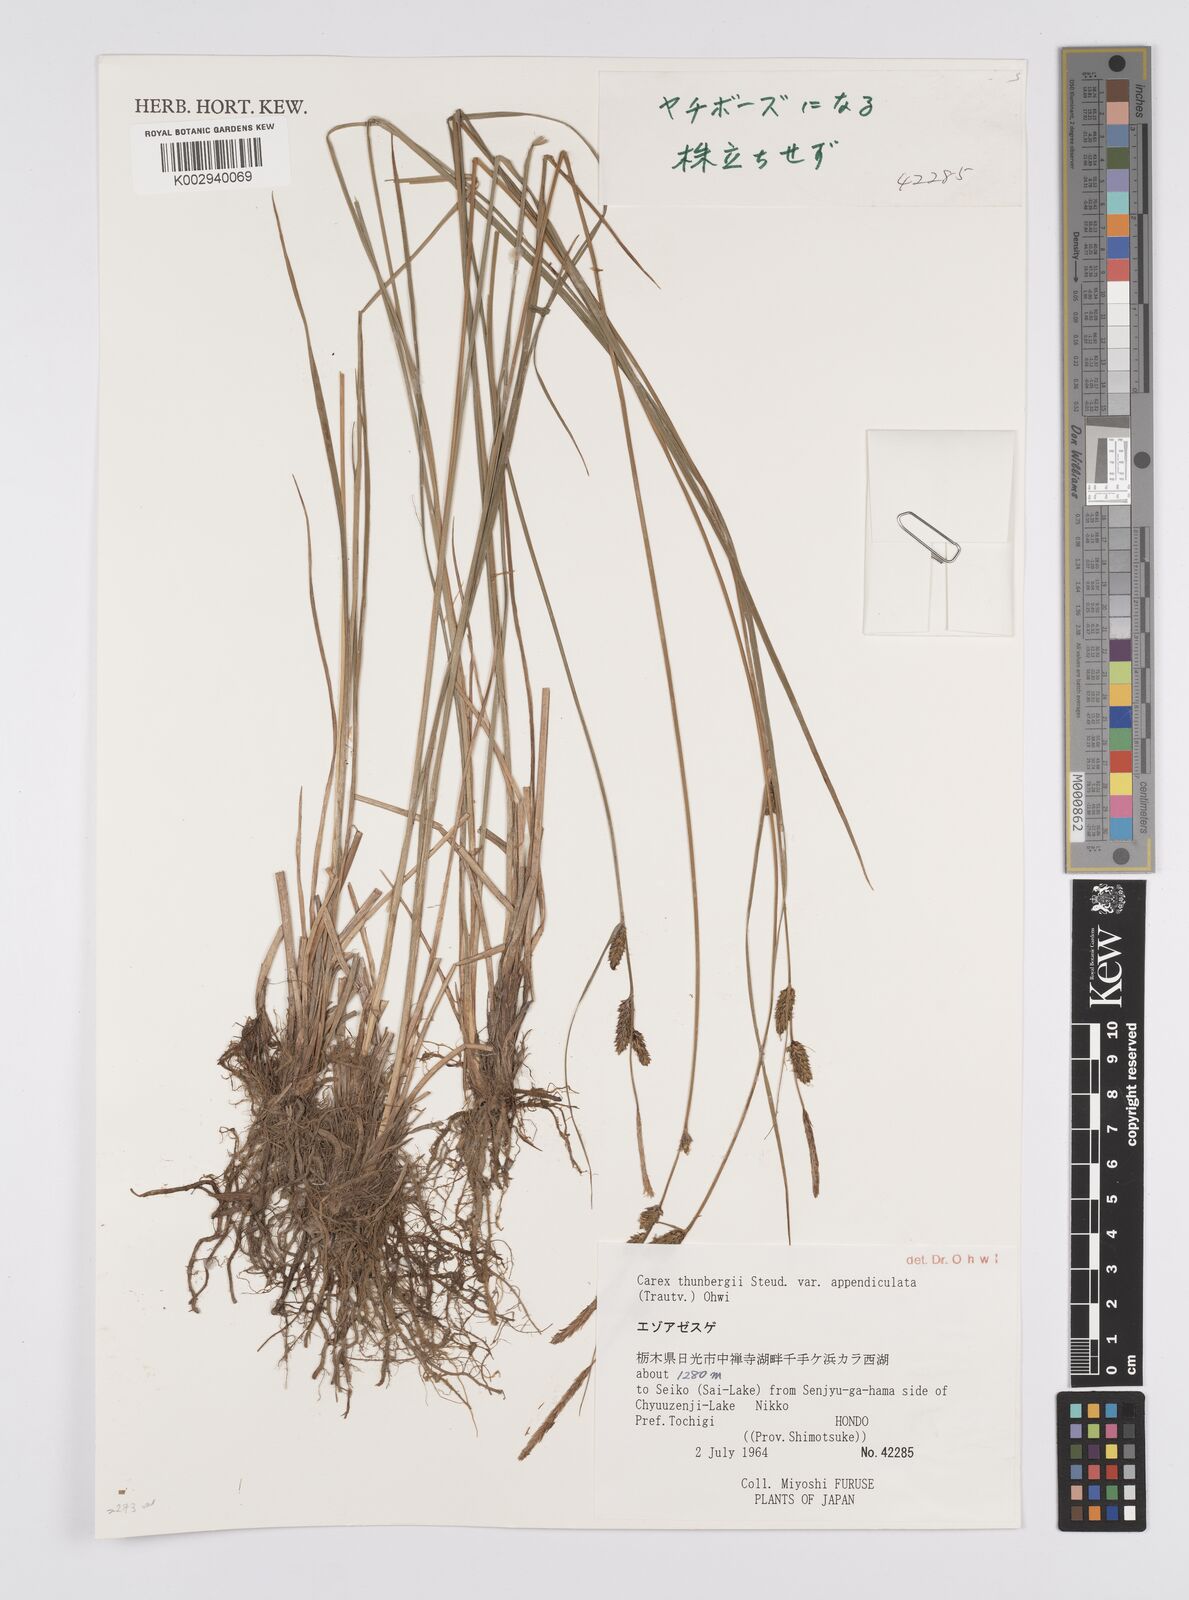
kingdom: Plantae
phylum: Tracheophyta
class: Liliopsida
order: Poales
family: Cyperaceae
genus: Carex
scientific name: Carex thunbergii
